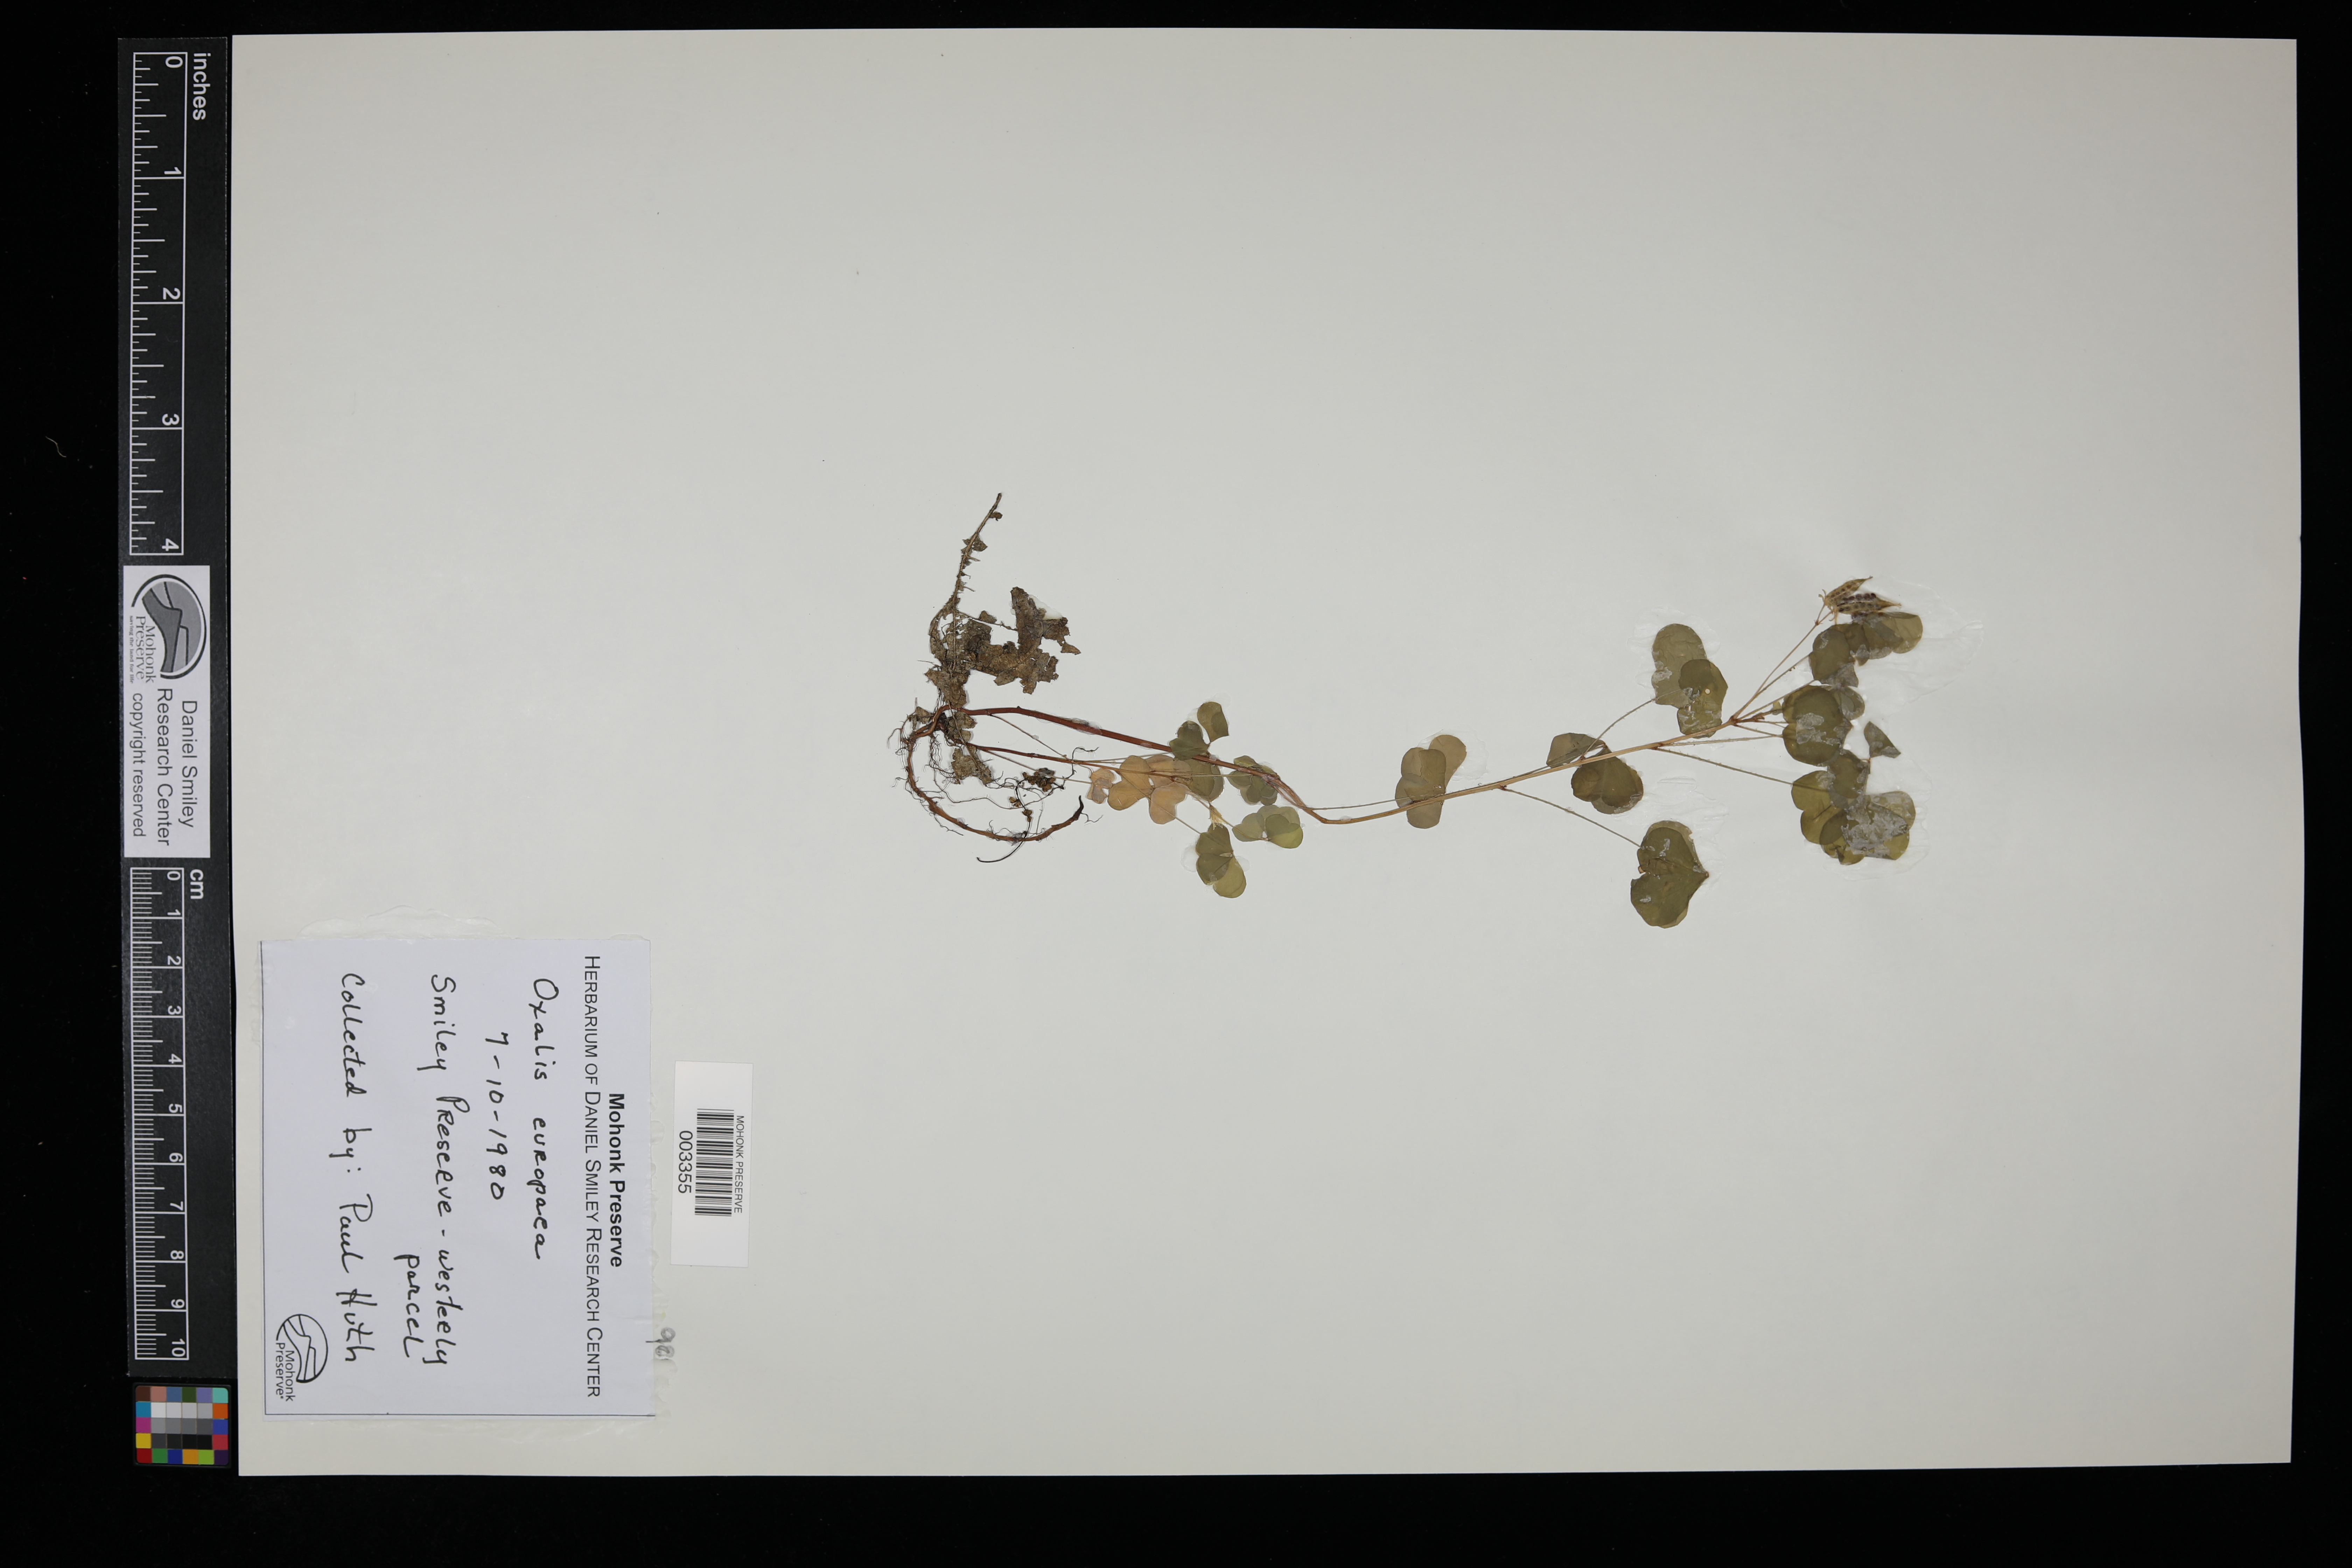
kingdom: Plantae
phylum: Tracheophyta
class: Magnoliopsida
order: Oxalidales
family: Oxalidaceae
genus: Oxalis
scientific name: Oxalis stricta
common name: Upright yellow-sorrel
